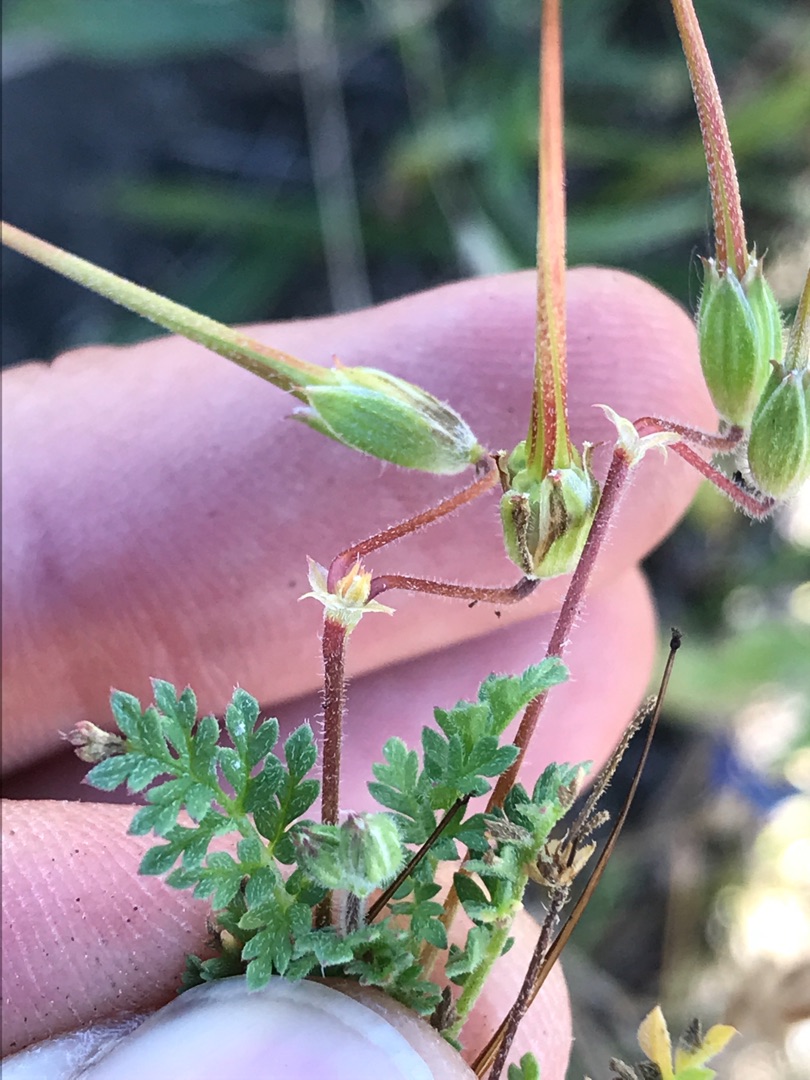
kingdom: Plantae
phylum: Tracheophyta
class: Magnoliopsida
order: Geraniales
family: Geraniaceae
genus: Erodium
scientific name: Erodium cicutarium
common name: Hejrenæb
